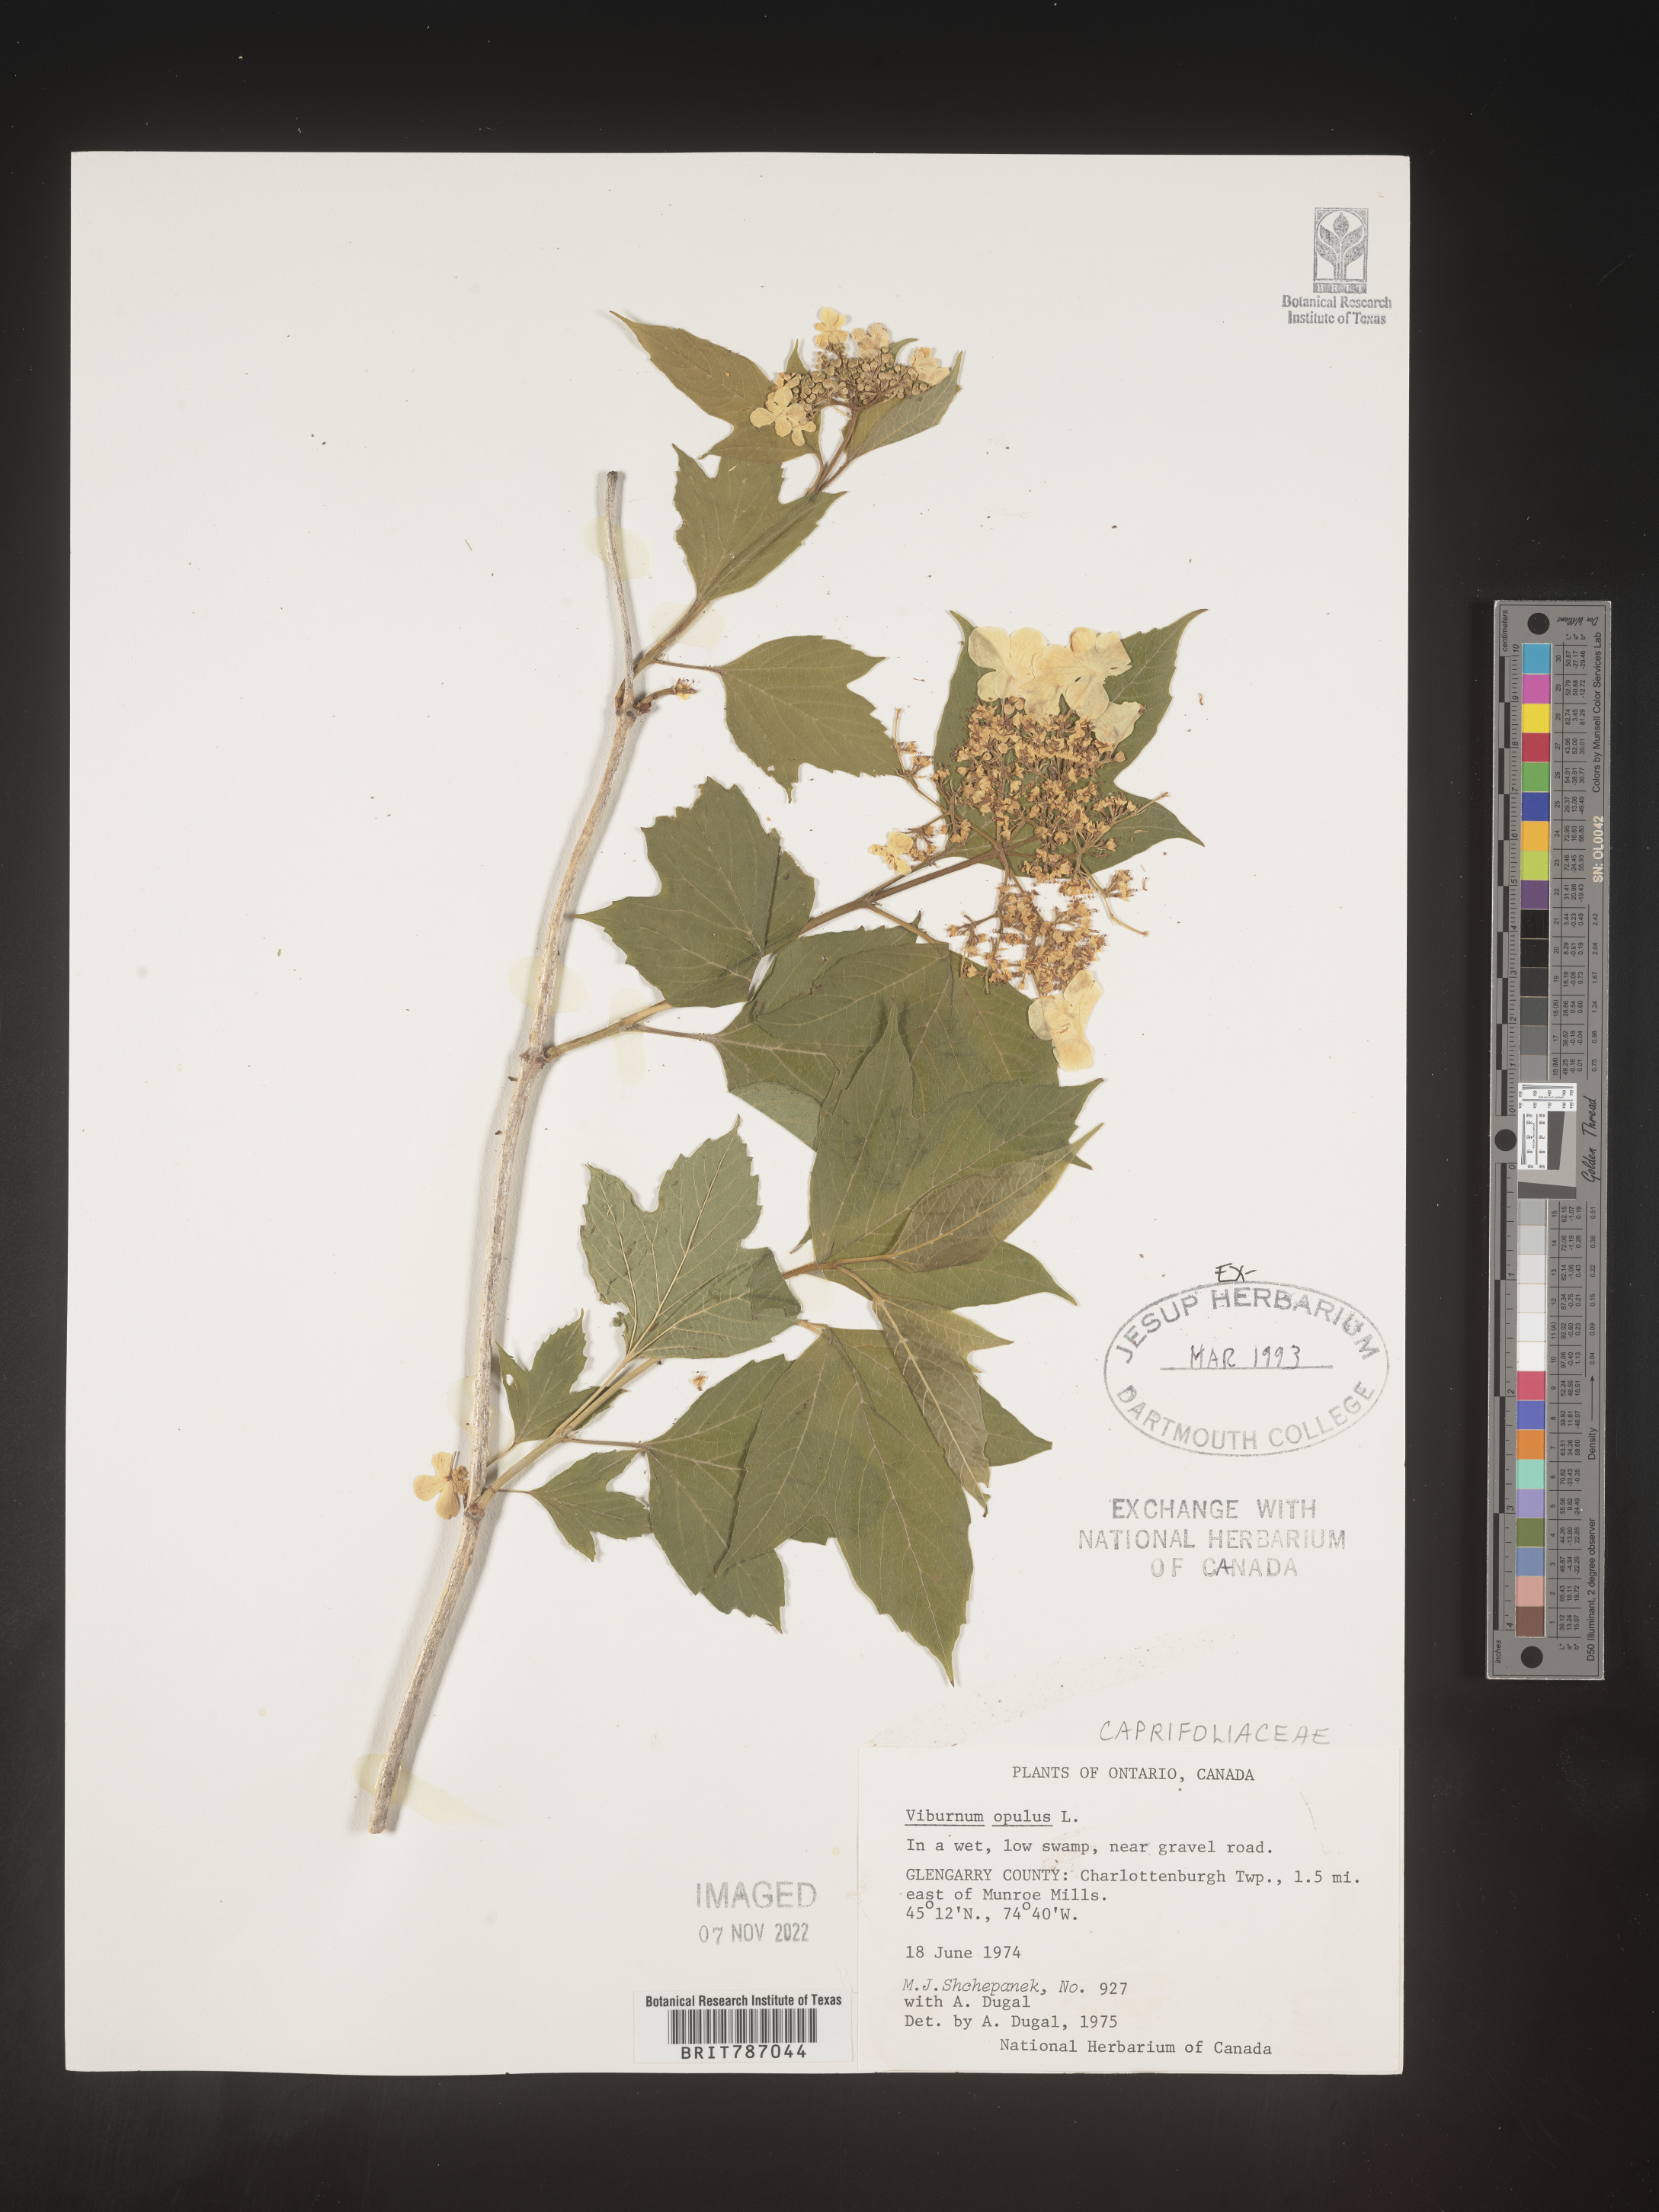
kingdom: Plantae
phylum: Tracheophyta
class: Magnoliopsida
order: Dipsacales
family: Viburnaceae
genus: Viburnum
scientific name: Viburnum opulus
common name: Guelder-rose
